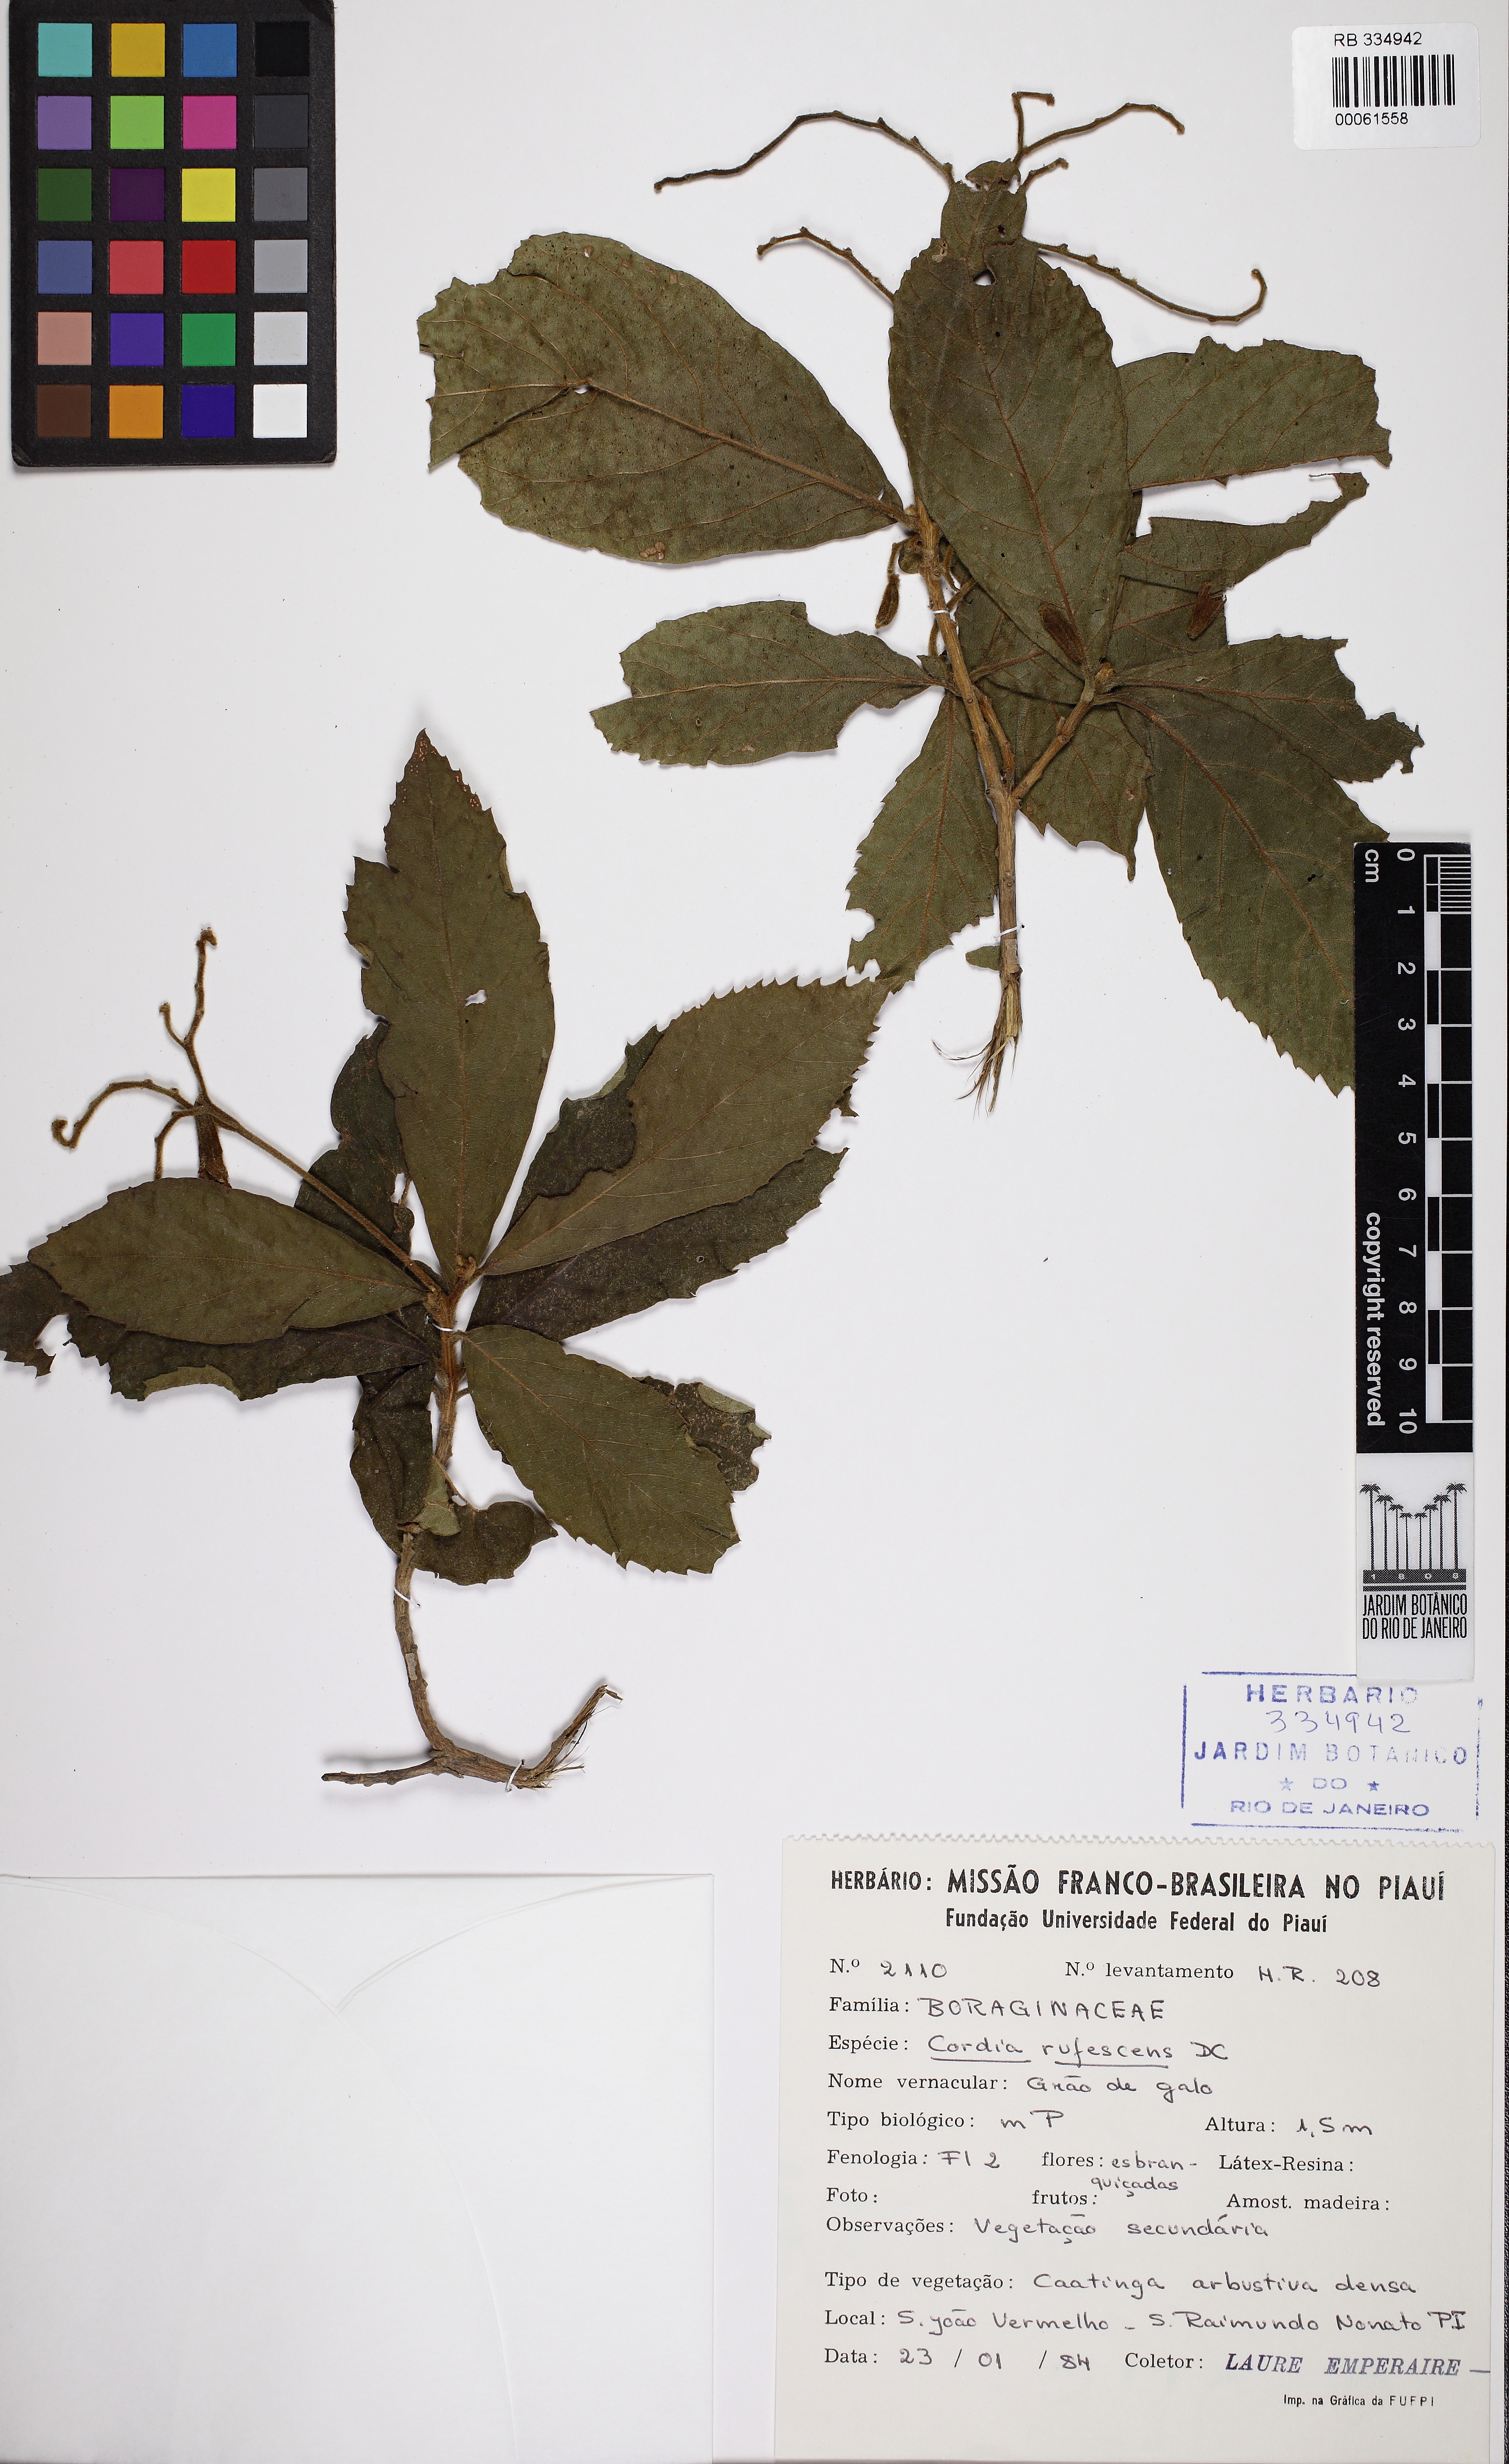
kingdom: Plantae
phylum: Tracheophyta
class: Magnoliopsida
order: Boraginales
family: Cordiaceae
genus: Cordia
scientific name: Cordia rufescens
